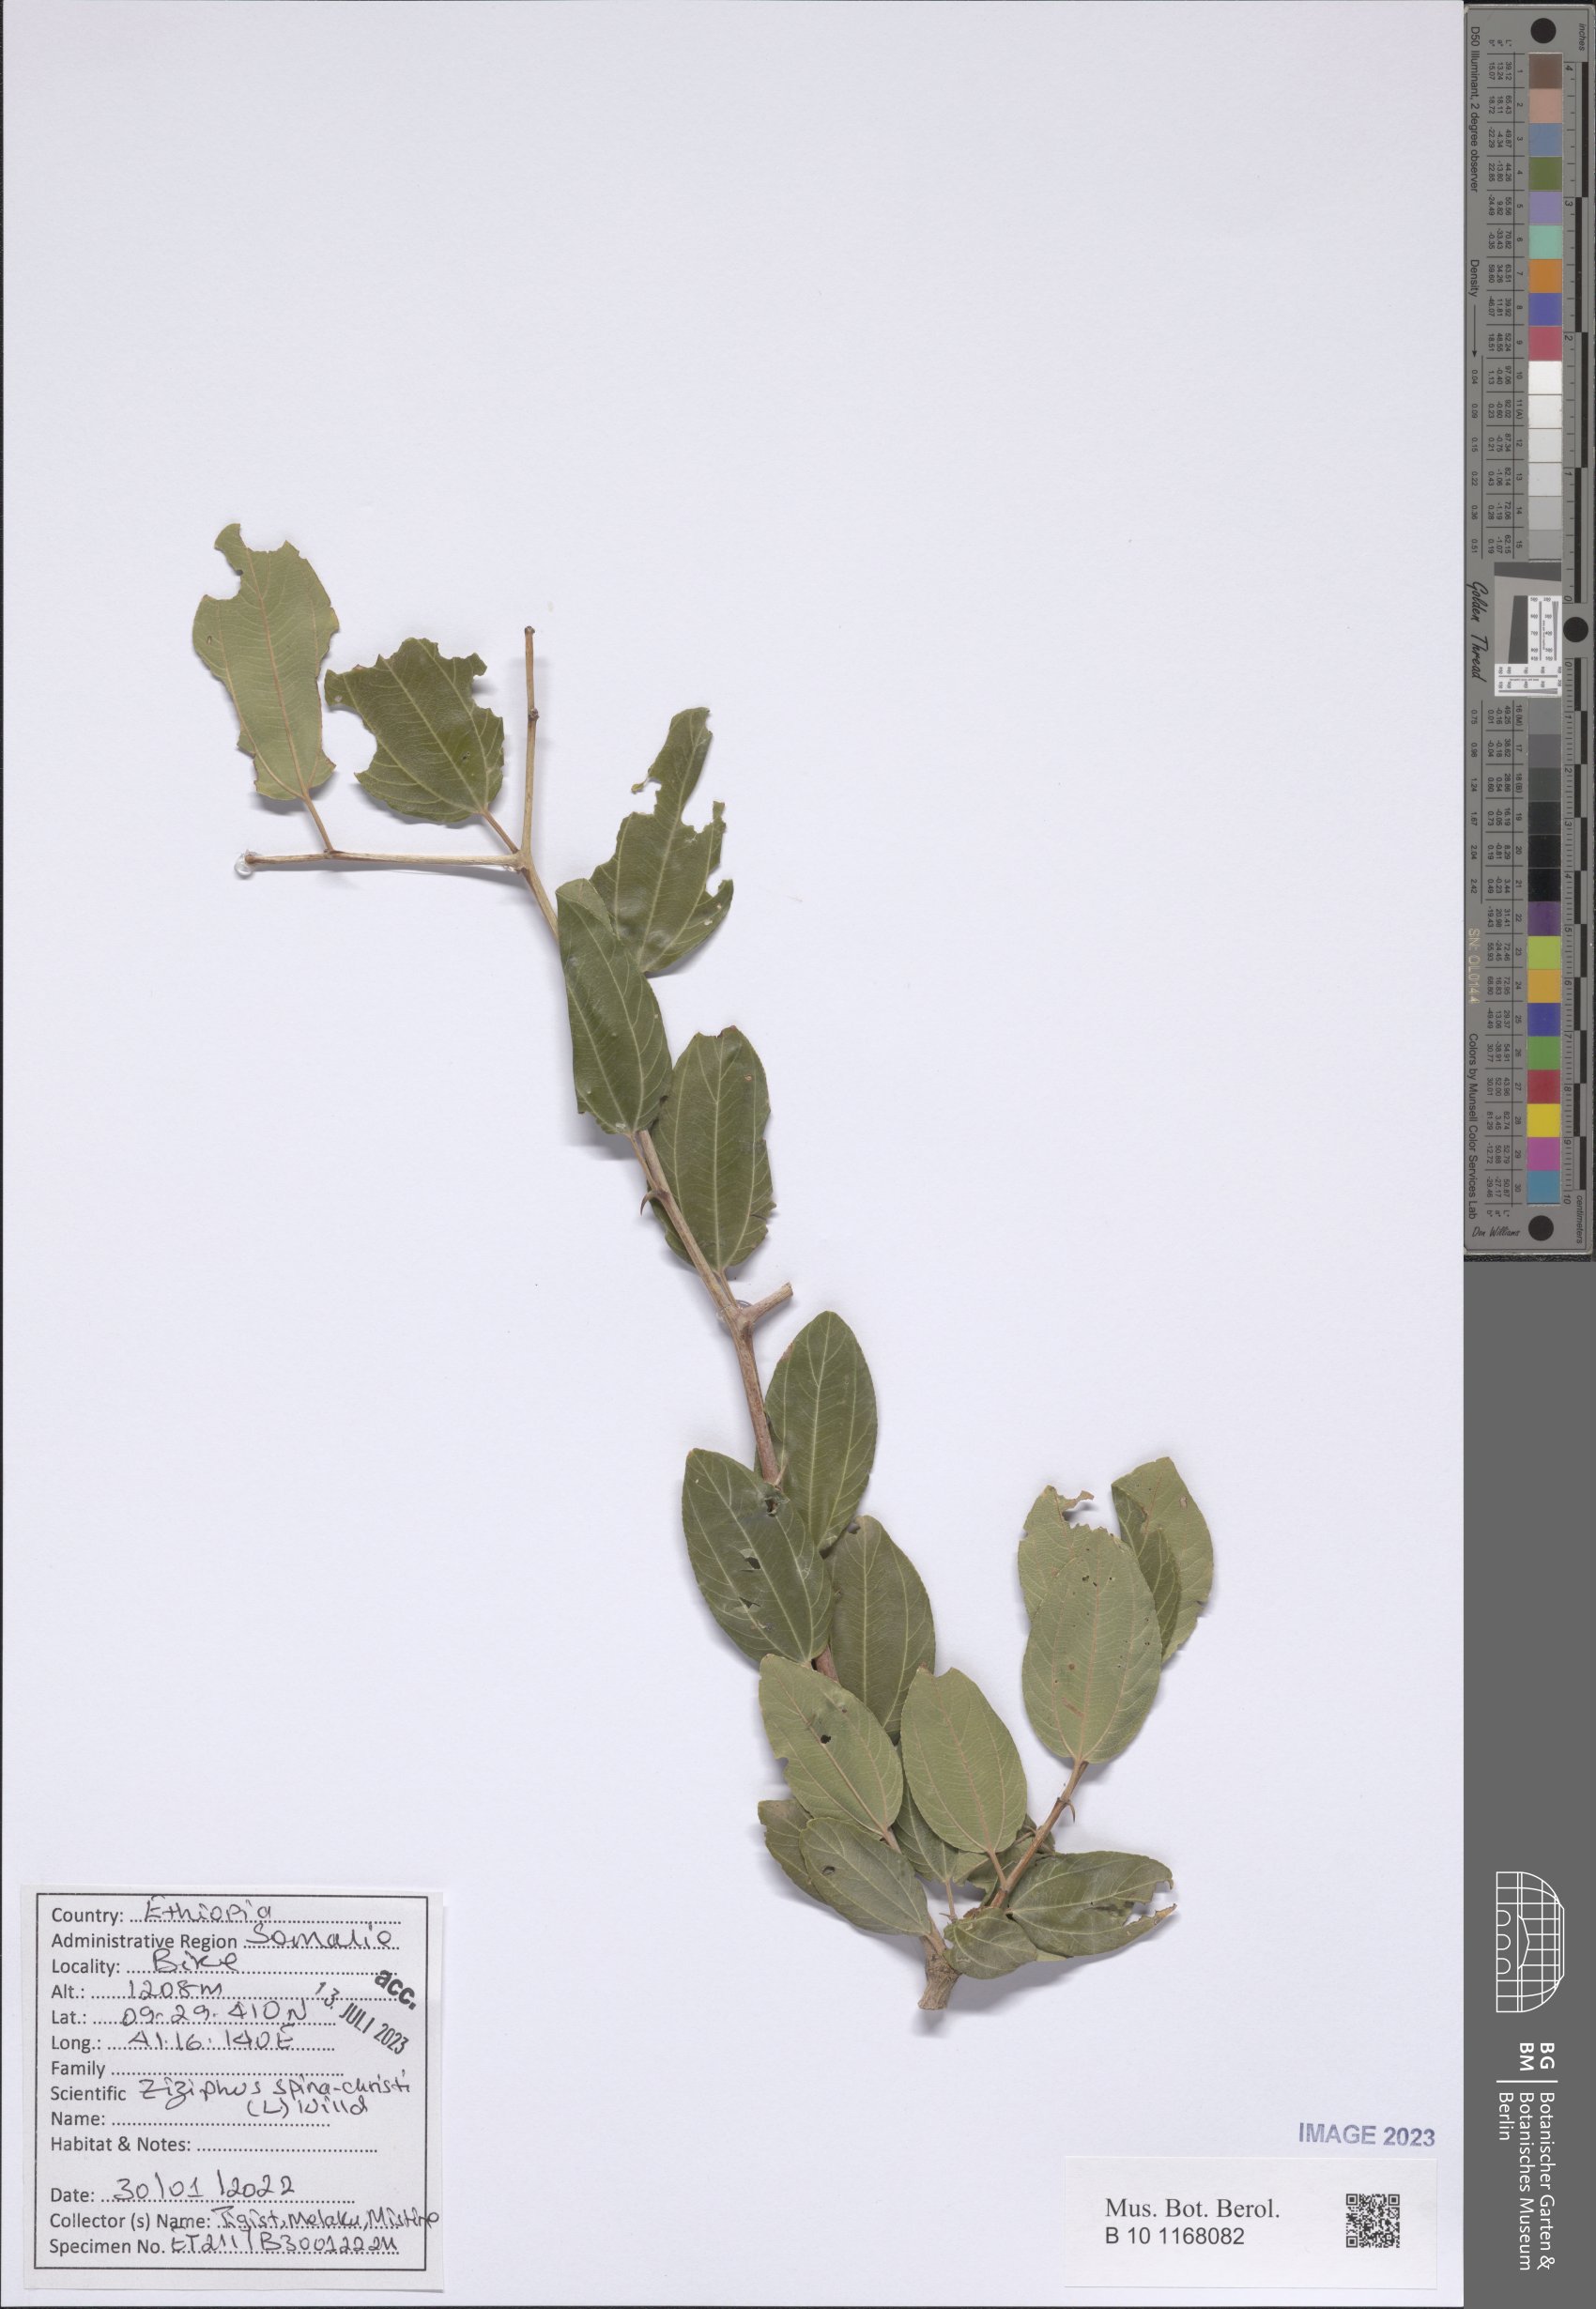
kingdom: Plantae
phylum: Tracheophyta
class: Magnoliopsida
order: Rosales
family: Rhamnaceae
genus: Ziziphus
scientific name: Ziziphus spina-christi
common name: Syrian christ-thorn
